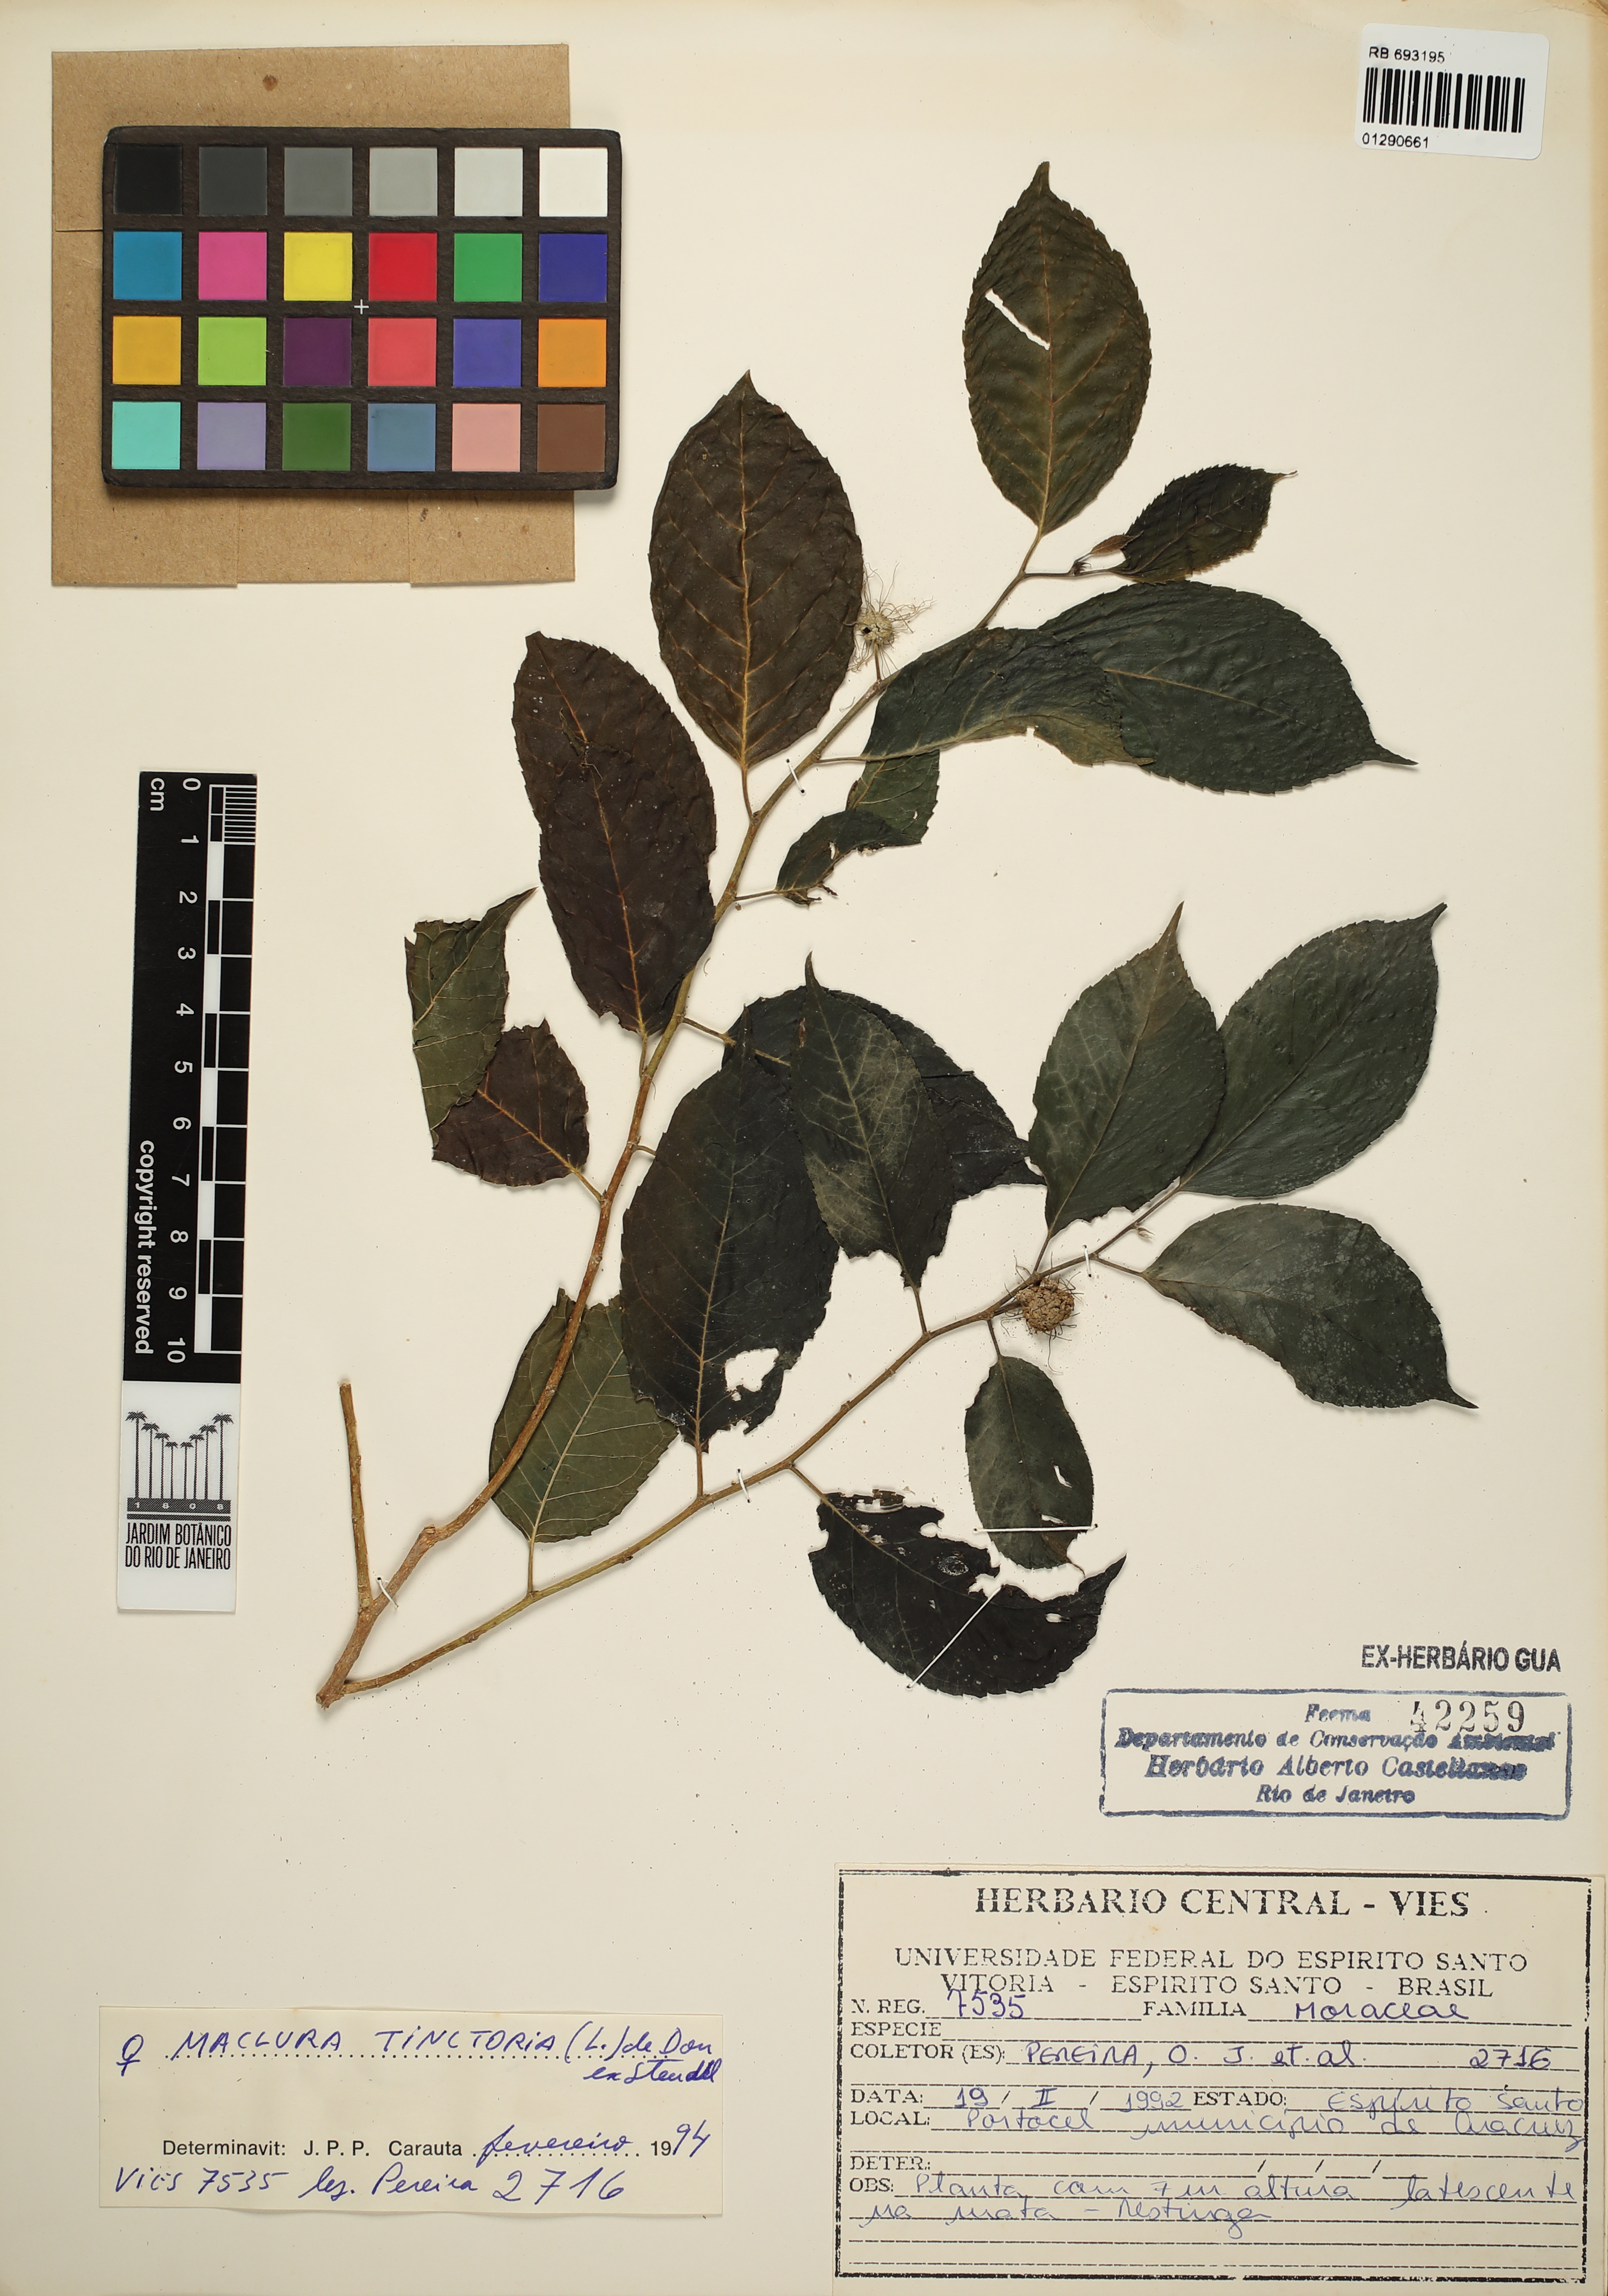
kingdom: Plantae
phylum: Tracheophyta
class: Magnoliopsida
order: Rosales
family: Moraceae
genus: Maclura
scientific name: Maclura tinctoria
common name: Old fustic
